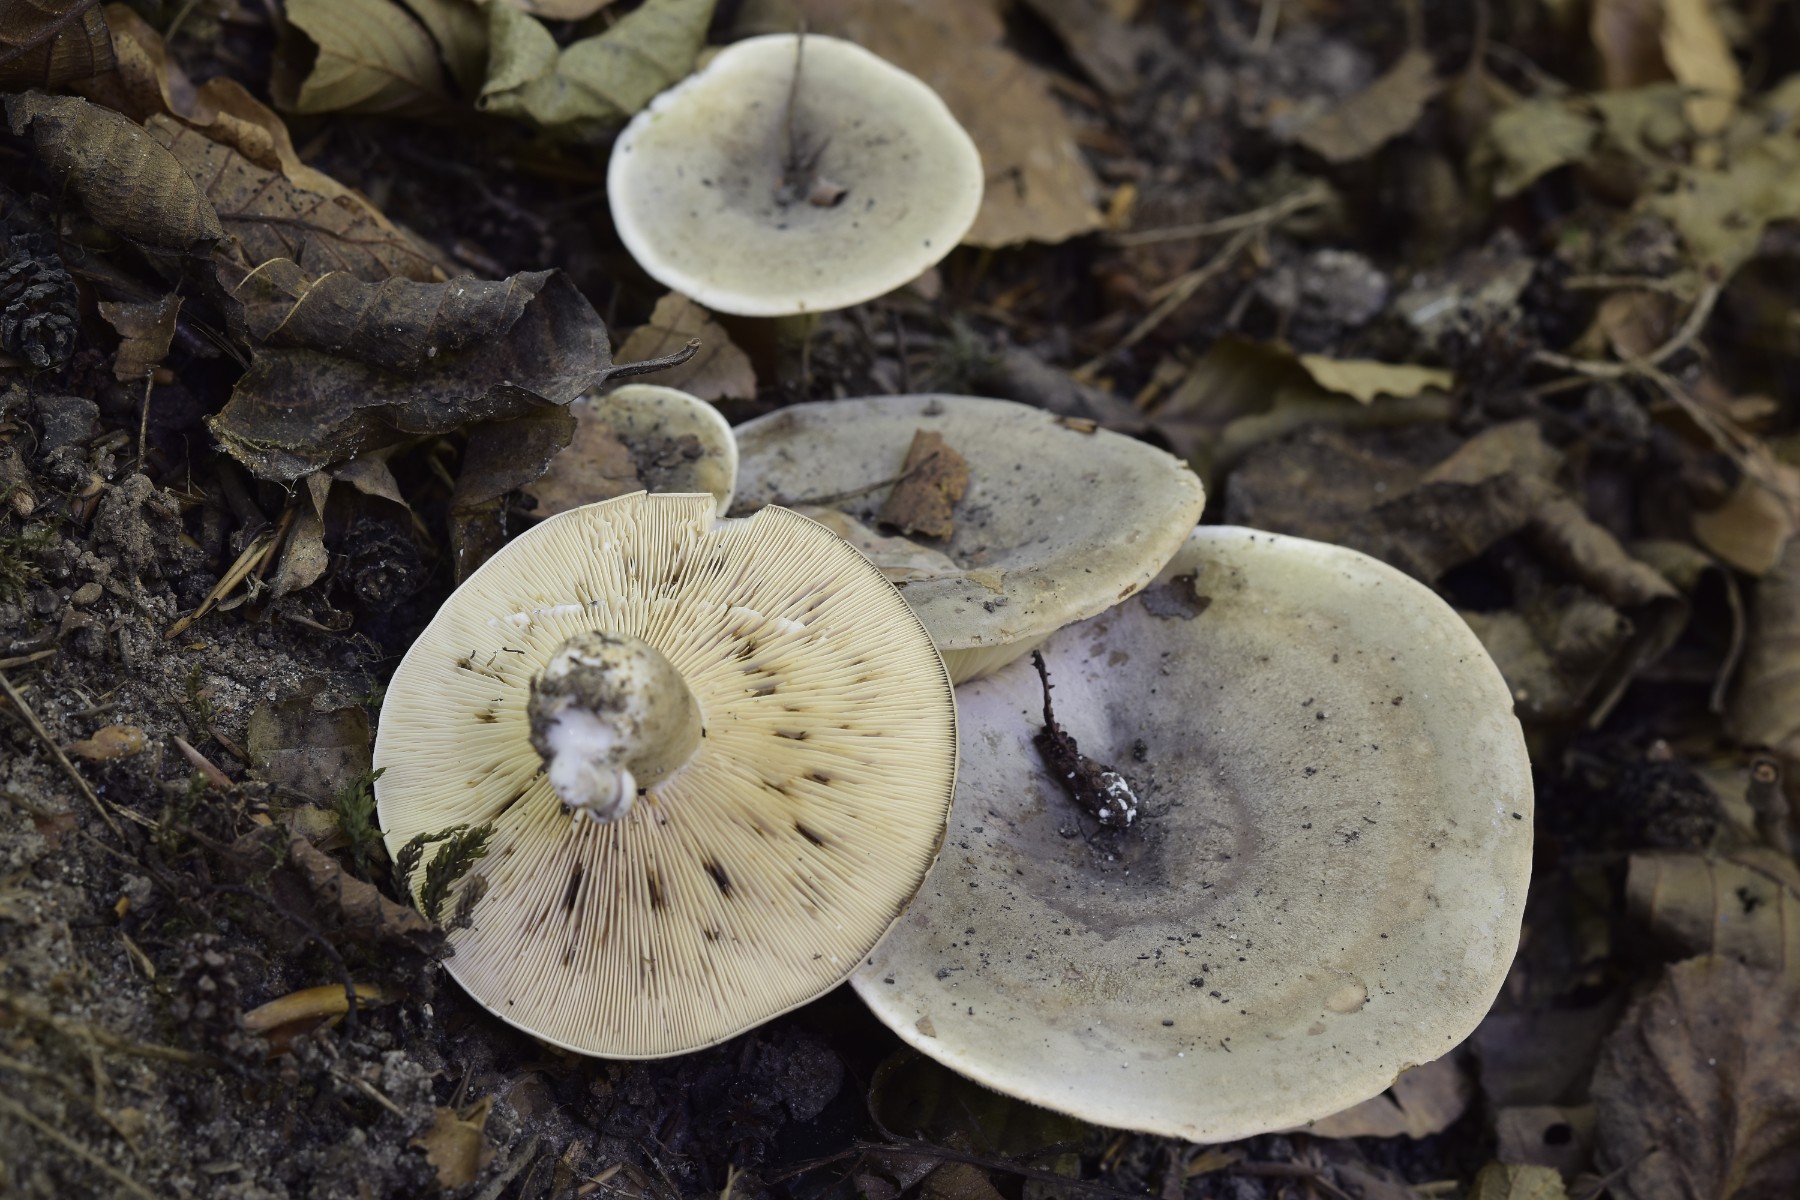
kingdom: Fungi
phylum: Basidiomycota
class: Agaricomycetes
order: Russulales
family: Russulaceae
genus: Lactarius
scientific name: Lactarius fluens
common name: lysrandet mælkehat
